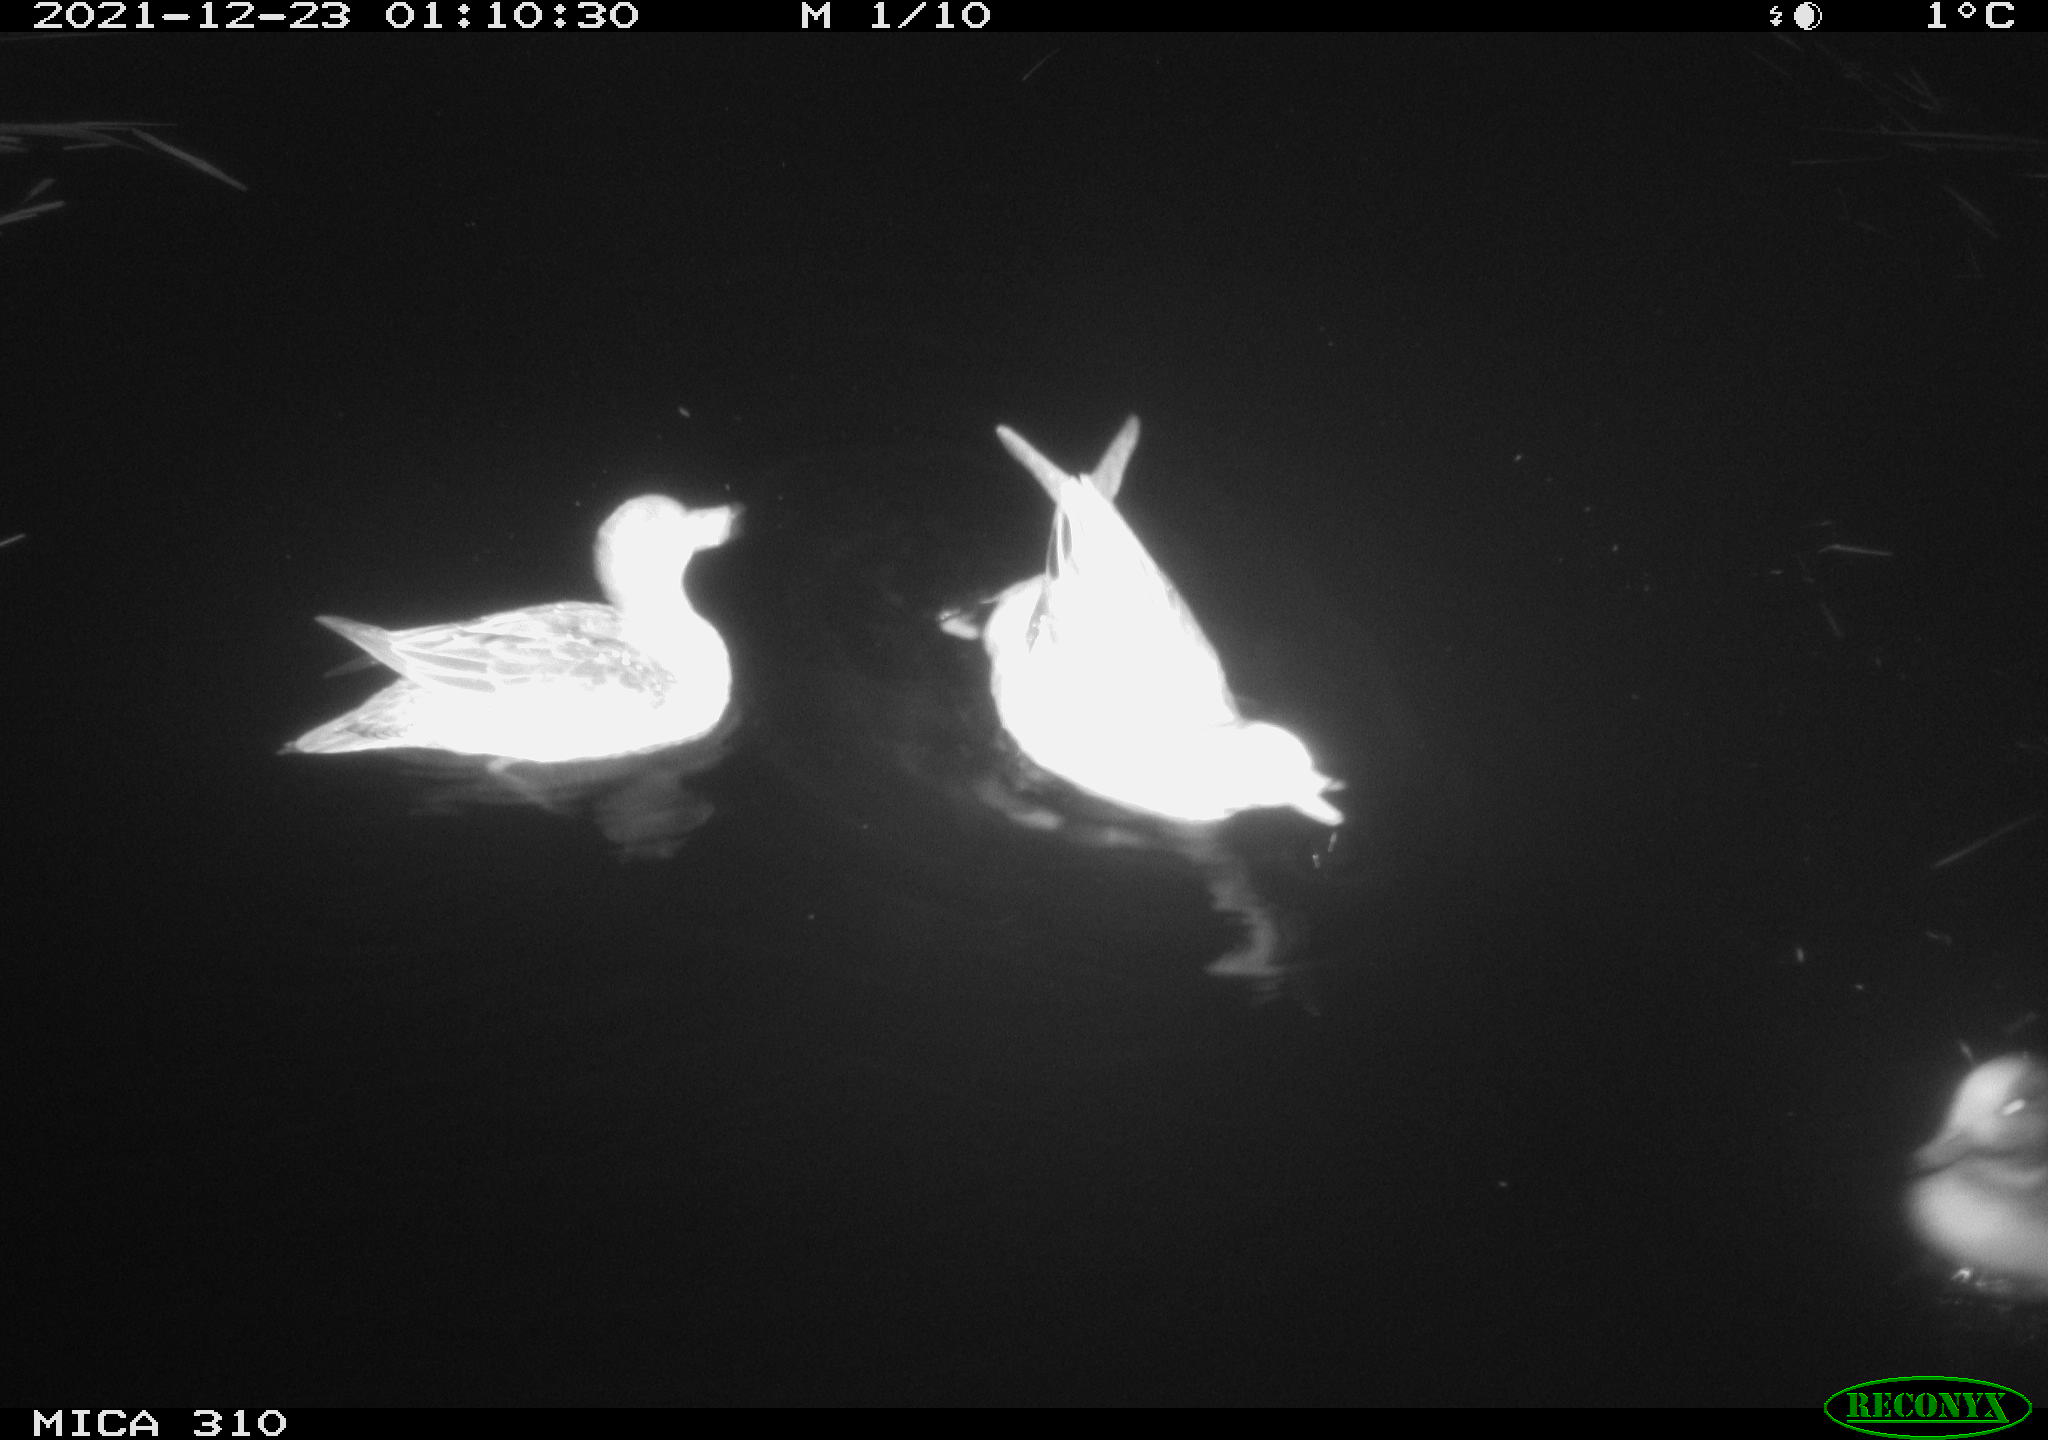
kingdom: Animalia
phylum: Chordata
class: Aves
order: Anseriformes
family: Anatidae
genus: Mareca
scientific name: Mareca strepera
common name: Gadwall
